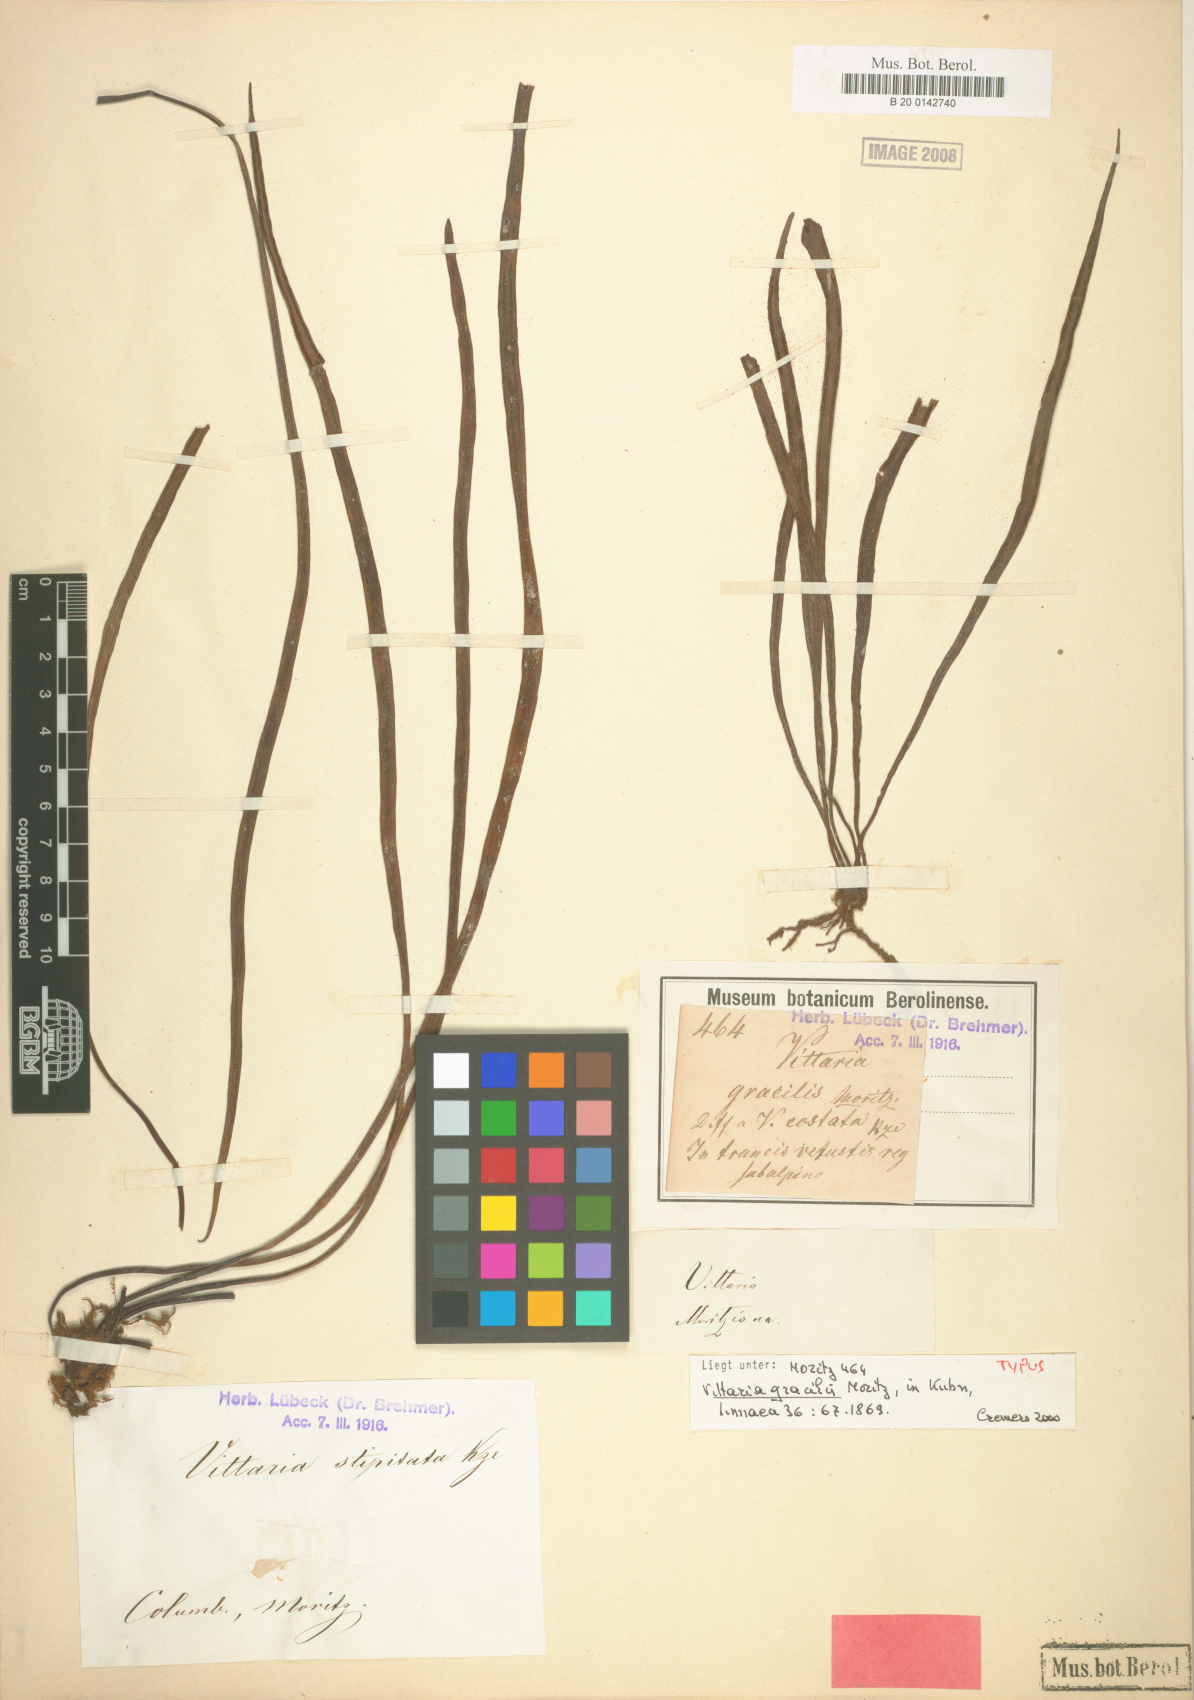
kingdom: Plantae
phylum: Tracheophyta
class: Polypodiopsida
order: Polypodiales
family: Pteridaceae
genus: Radiovittaria
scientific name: Radiovittaria gardneriana
